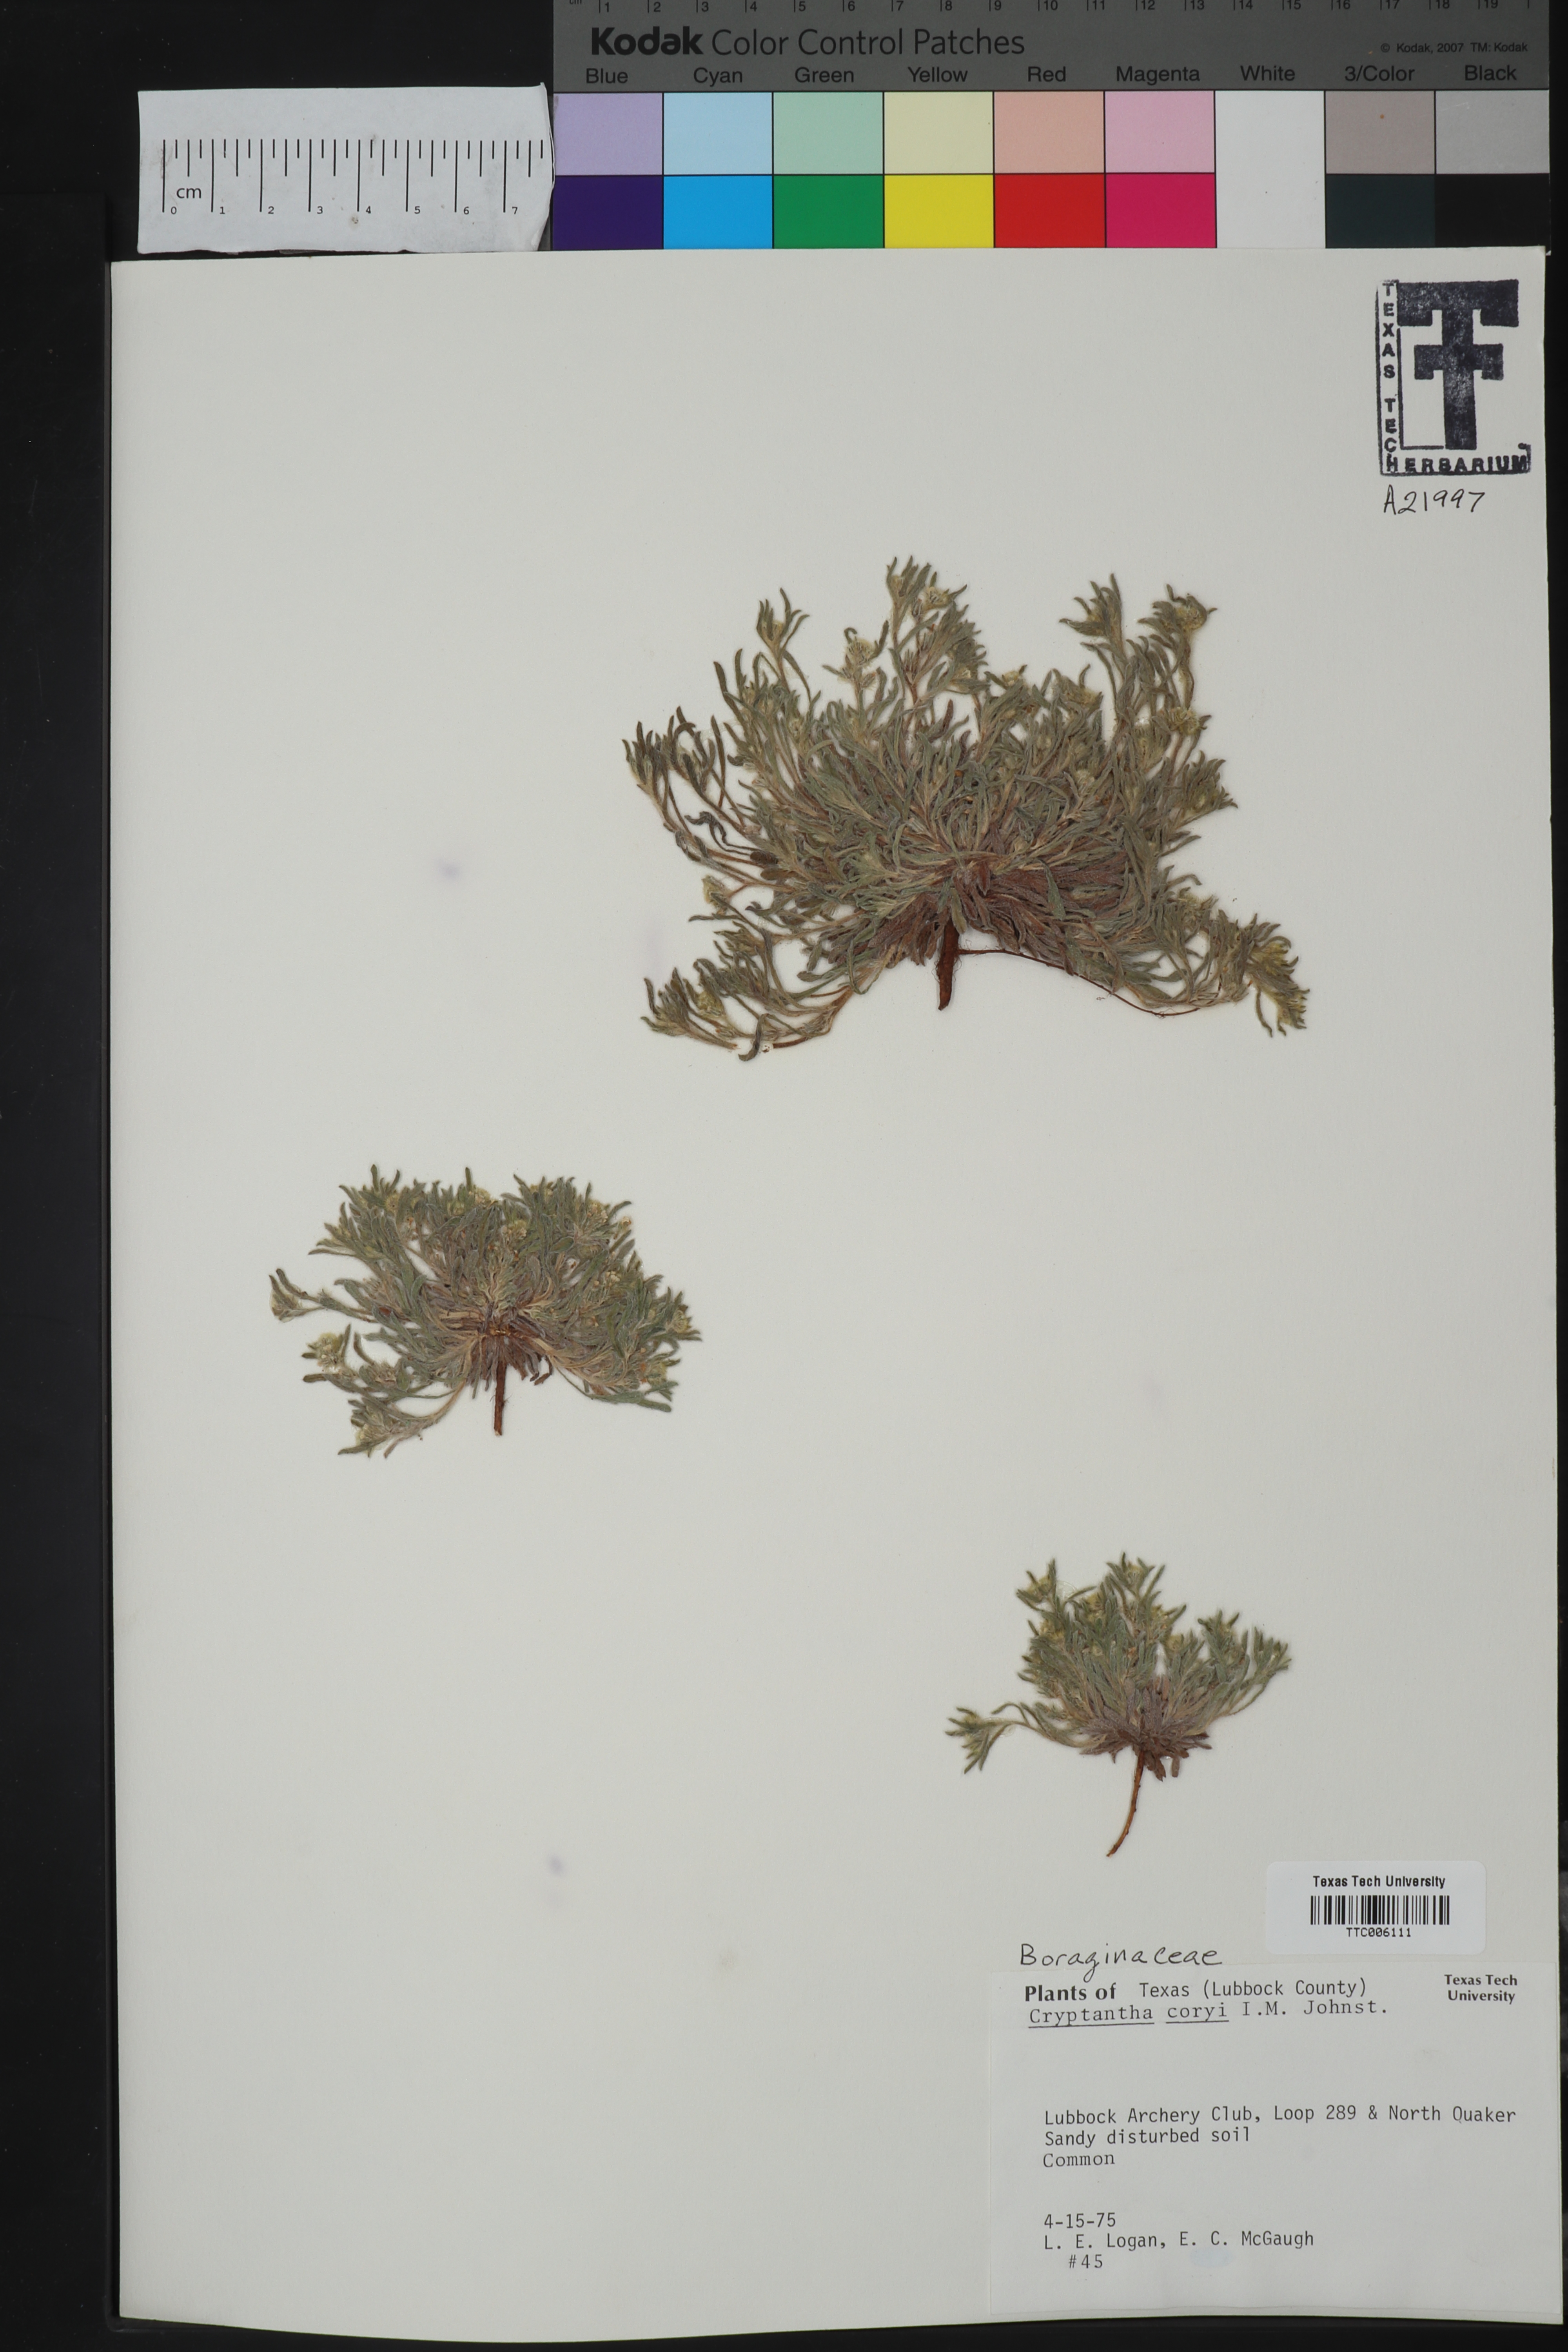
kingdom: Plantae
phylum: Tracheophyta
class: Magnoliopsida
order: Boraginales
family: Boraginaceae
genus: Oreocarya
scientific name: Oreocarya palmeri
